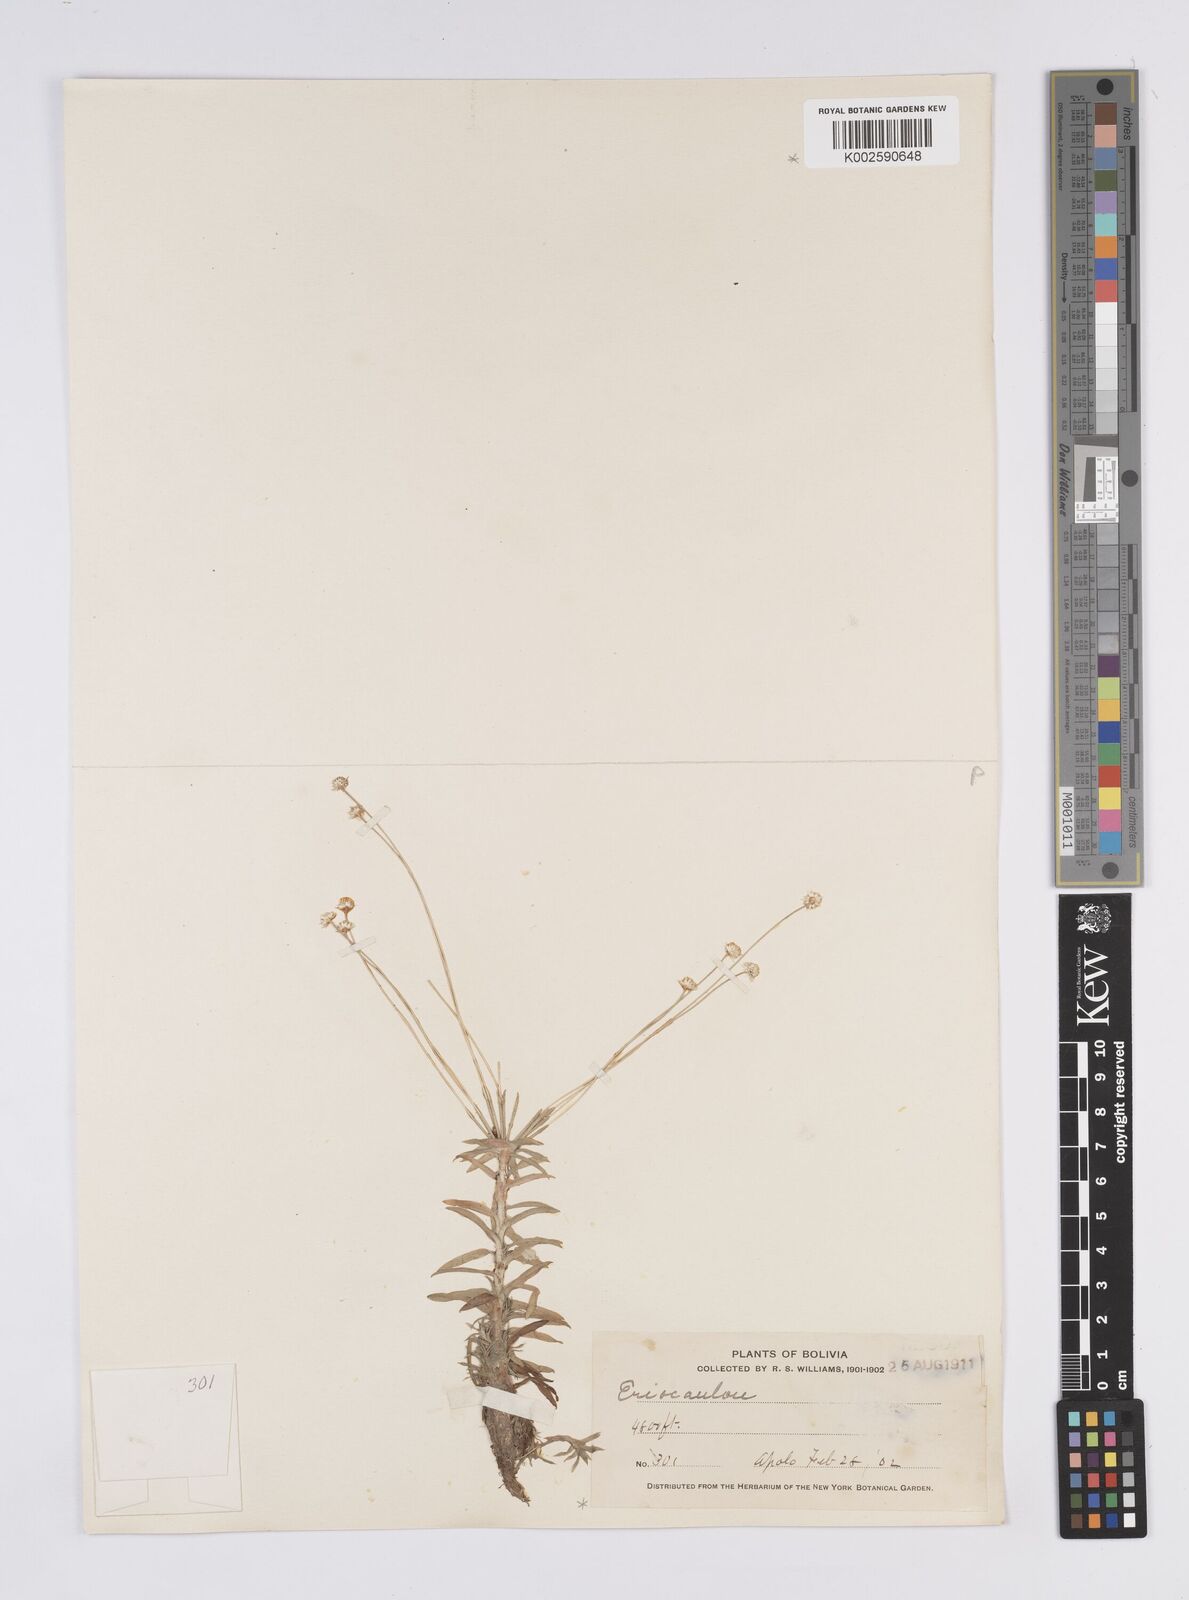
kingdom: Plantae
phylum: Tracheophyta
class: Liliopsida
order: Poales
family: Eriocaulaceae
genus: Syngonanthus
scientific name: Syngonanthus caulescens
